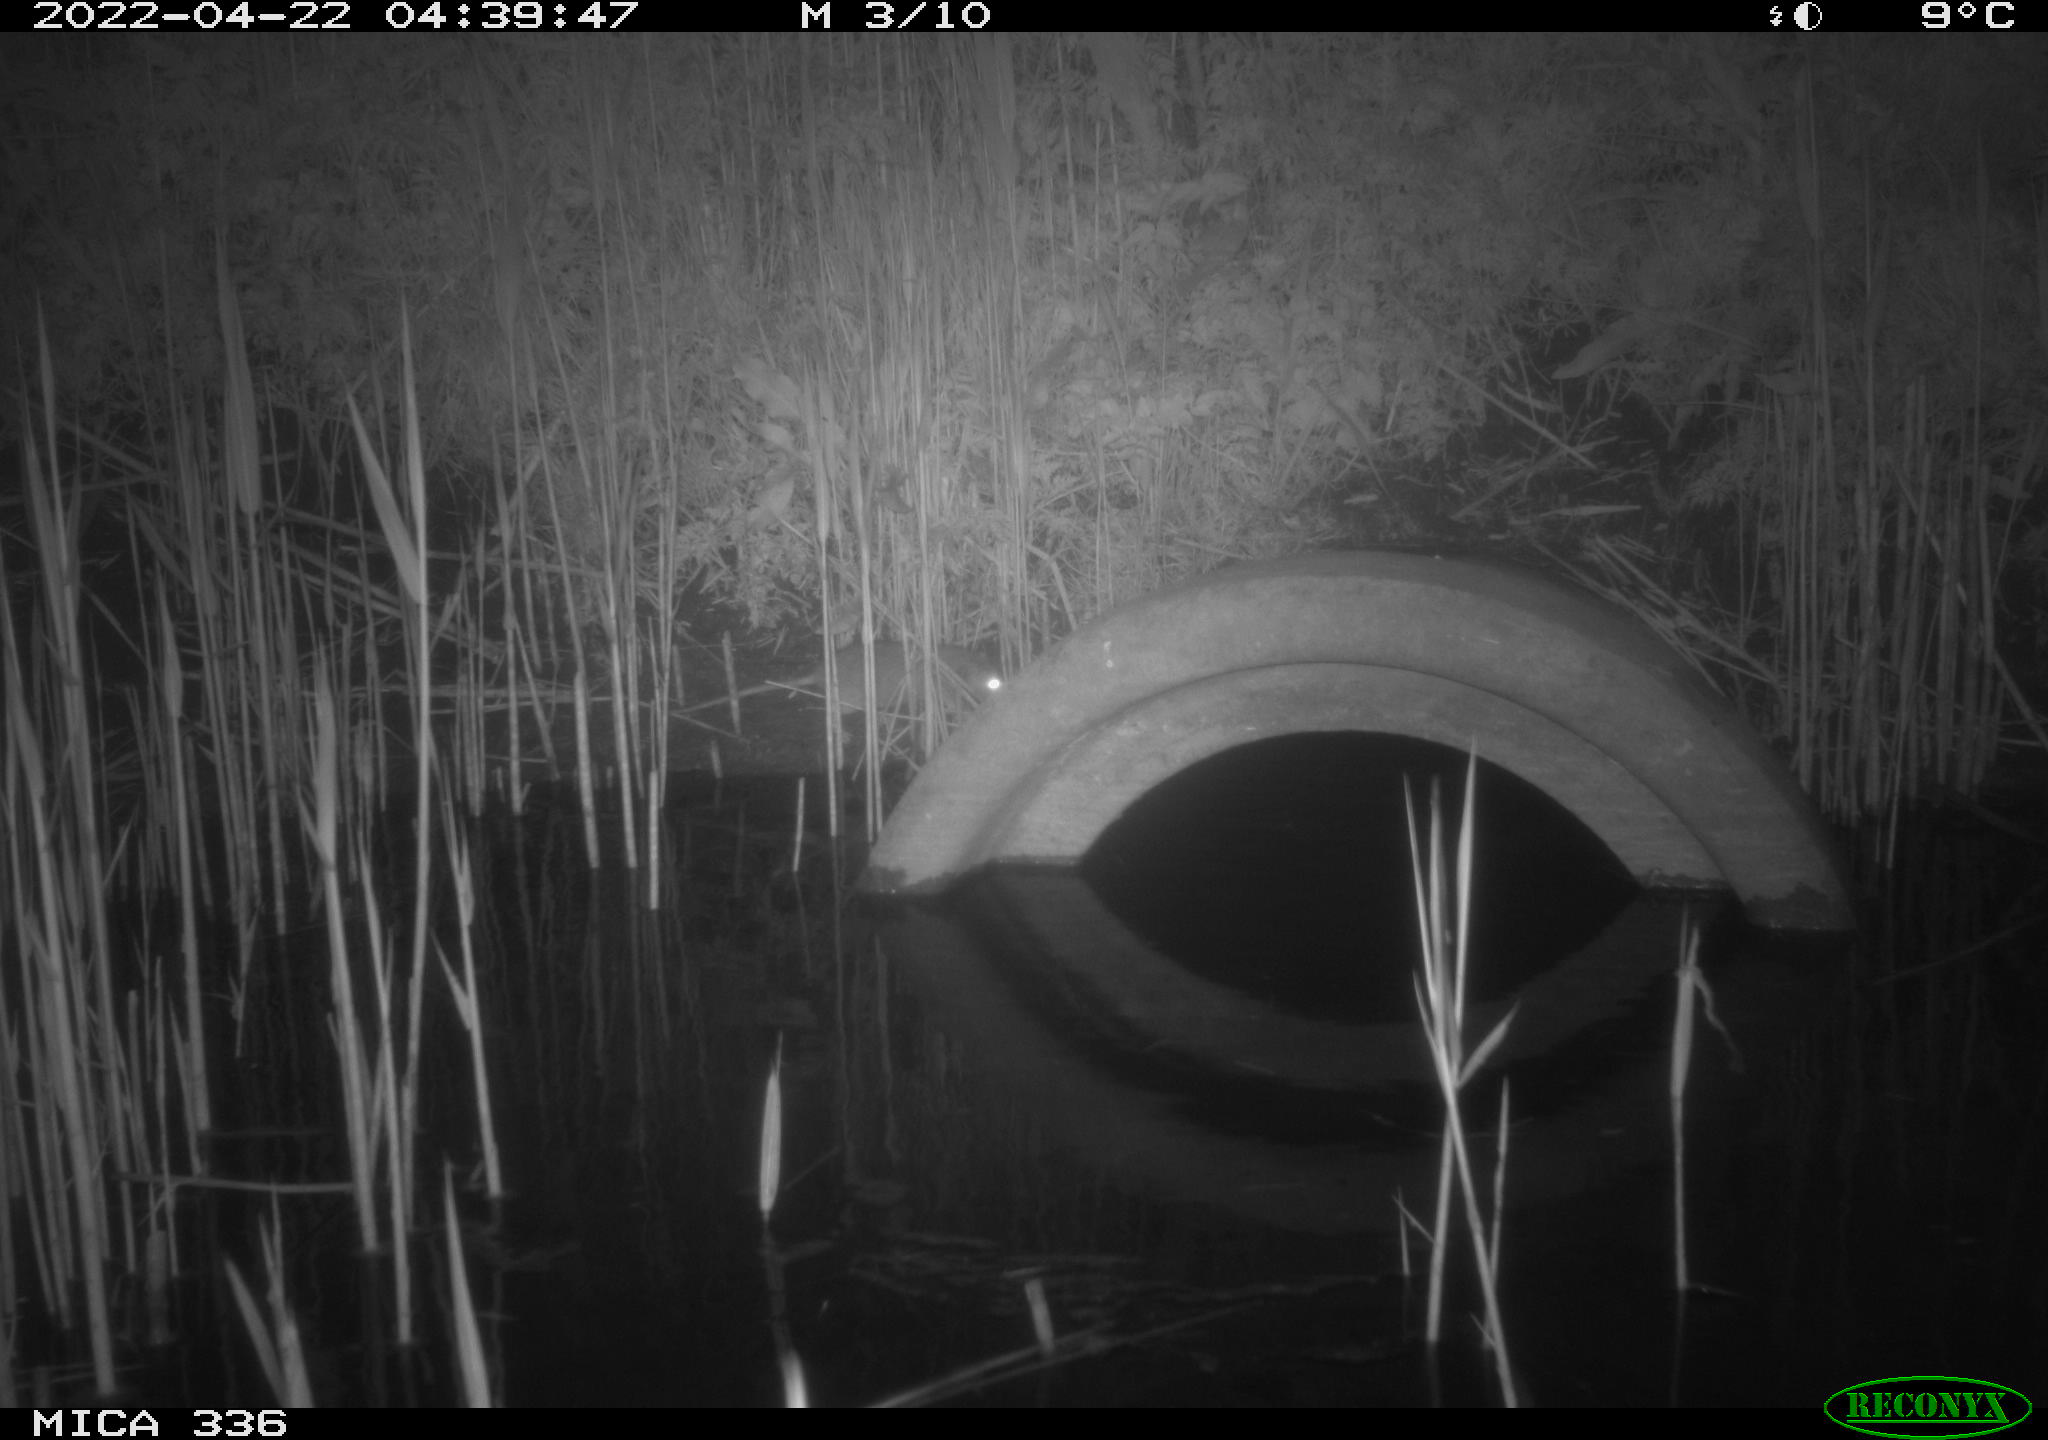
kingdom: Animalia
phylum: Chordata
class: Mammalia
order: Rodentia
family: Muridae
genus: Rattus
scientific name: Rattus norvegicus
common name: Brown rat
